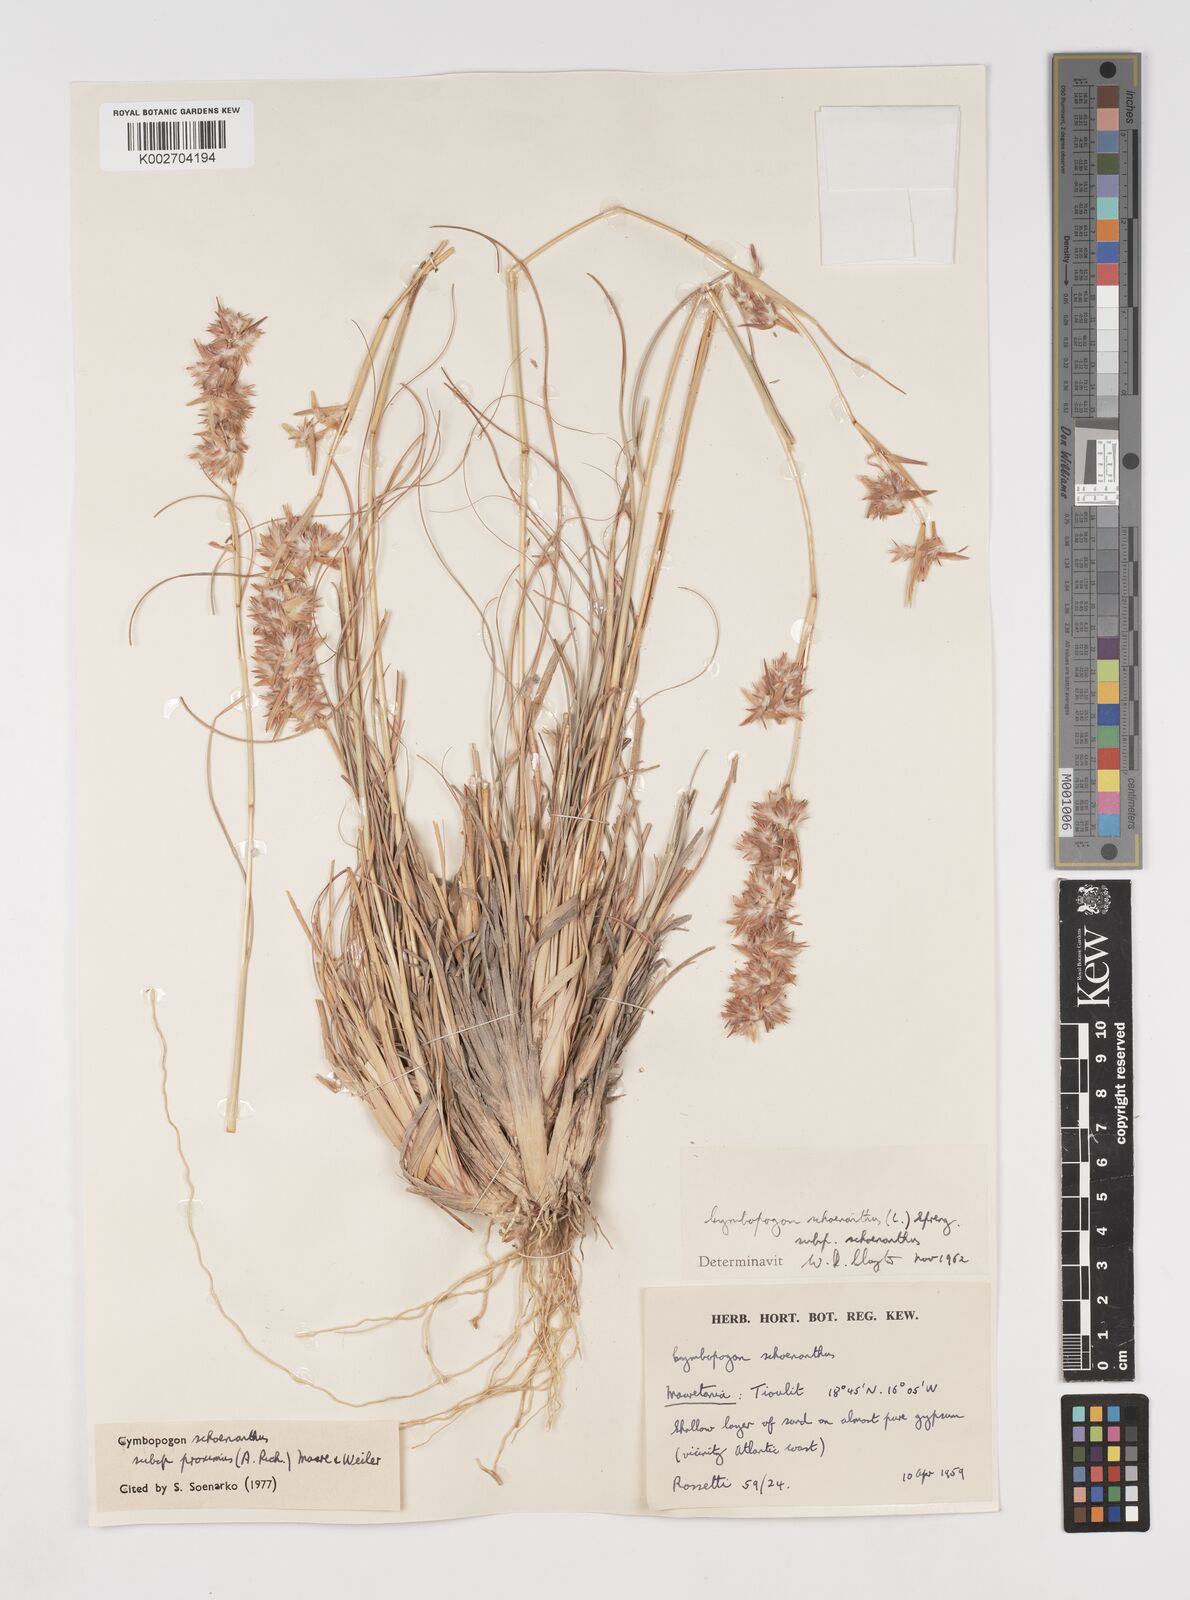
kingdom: Plantae
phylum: Tracheophyta
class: Liliopsida
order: Poales
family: Poaceae
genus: Cymbopogon
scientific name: Cymbopogon schoenanthus
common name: Geranium grass
